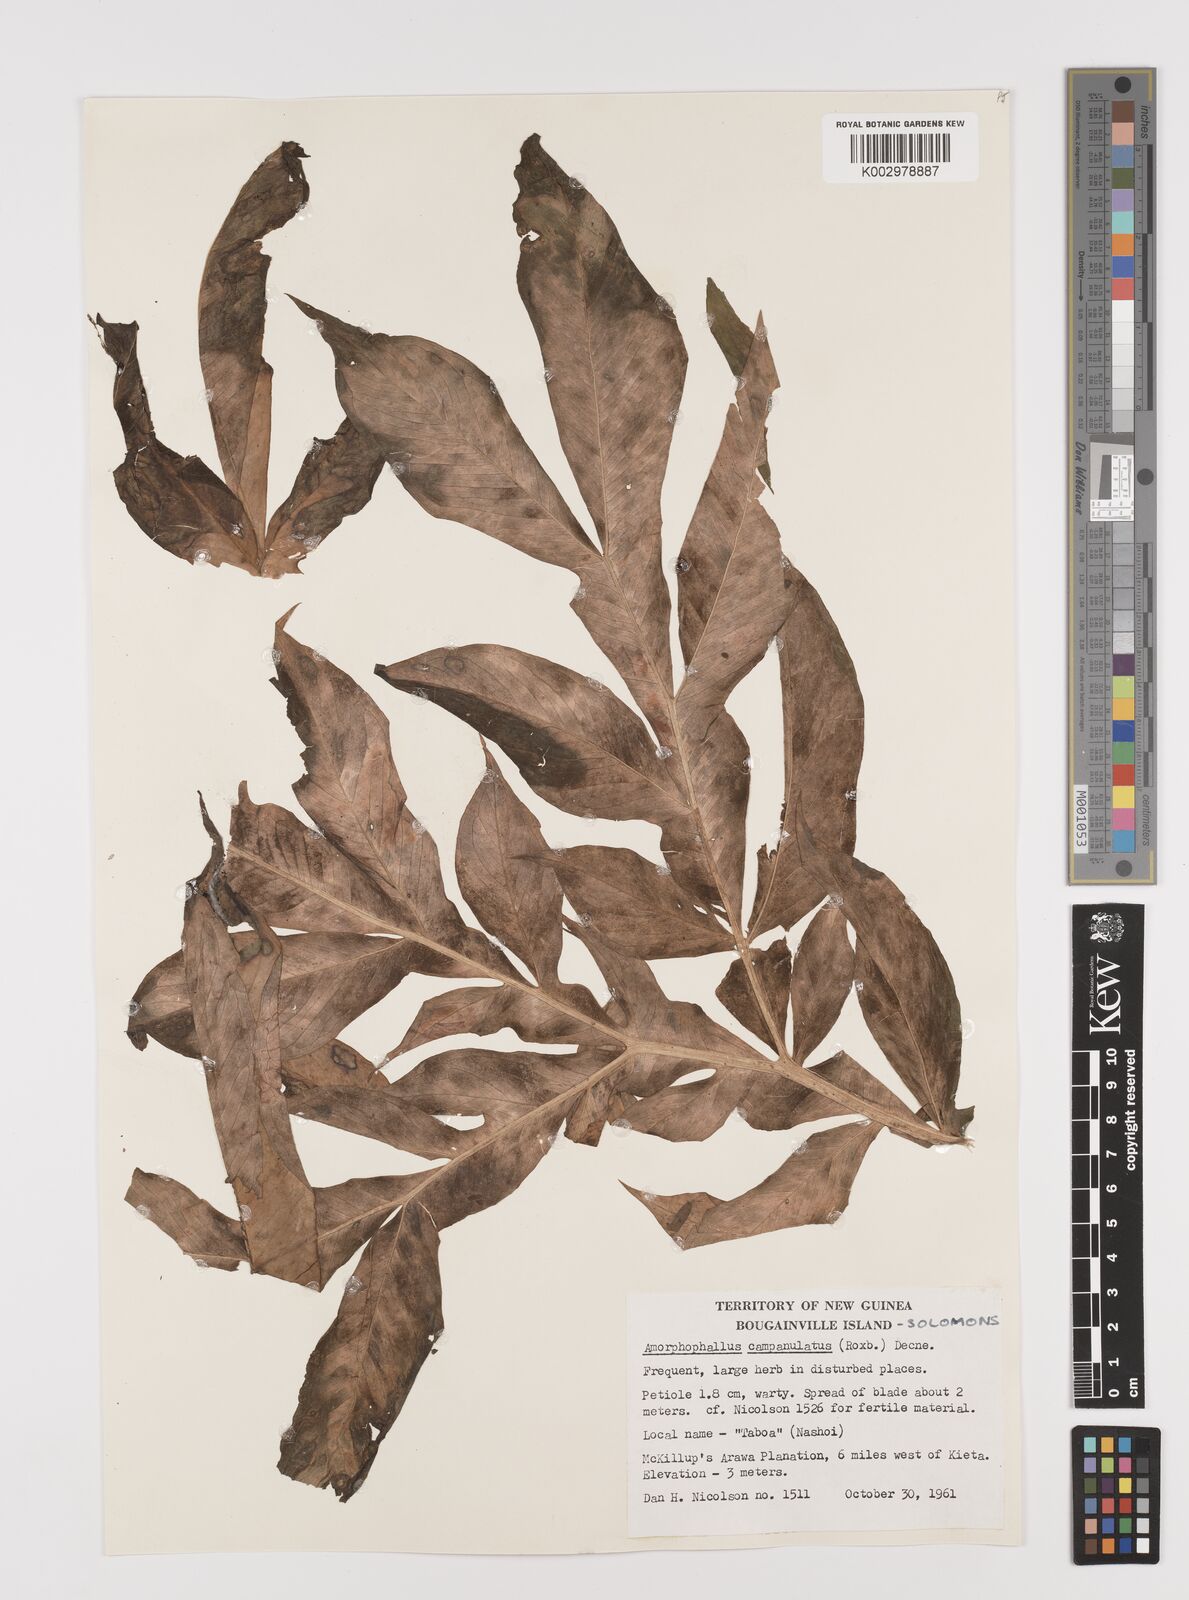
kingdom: Plantae
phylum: Tracheophyta
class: Liliopsida
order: Alismatales
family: Araceae
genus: Amorphophallus
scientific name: Amorphophallus paeoniifolius
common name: Telinga-potato
